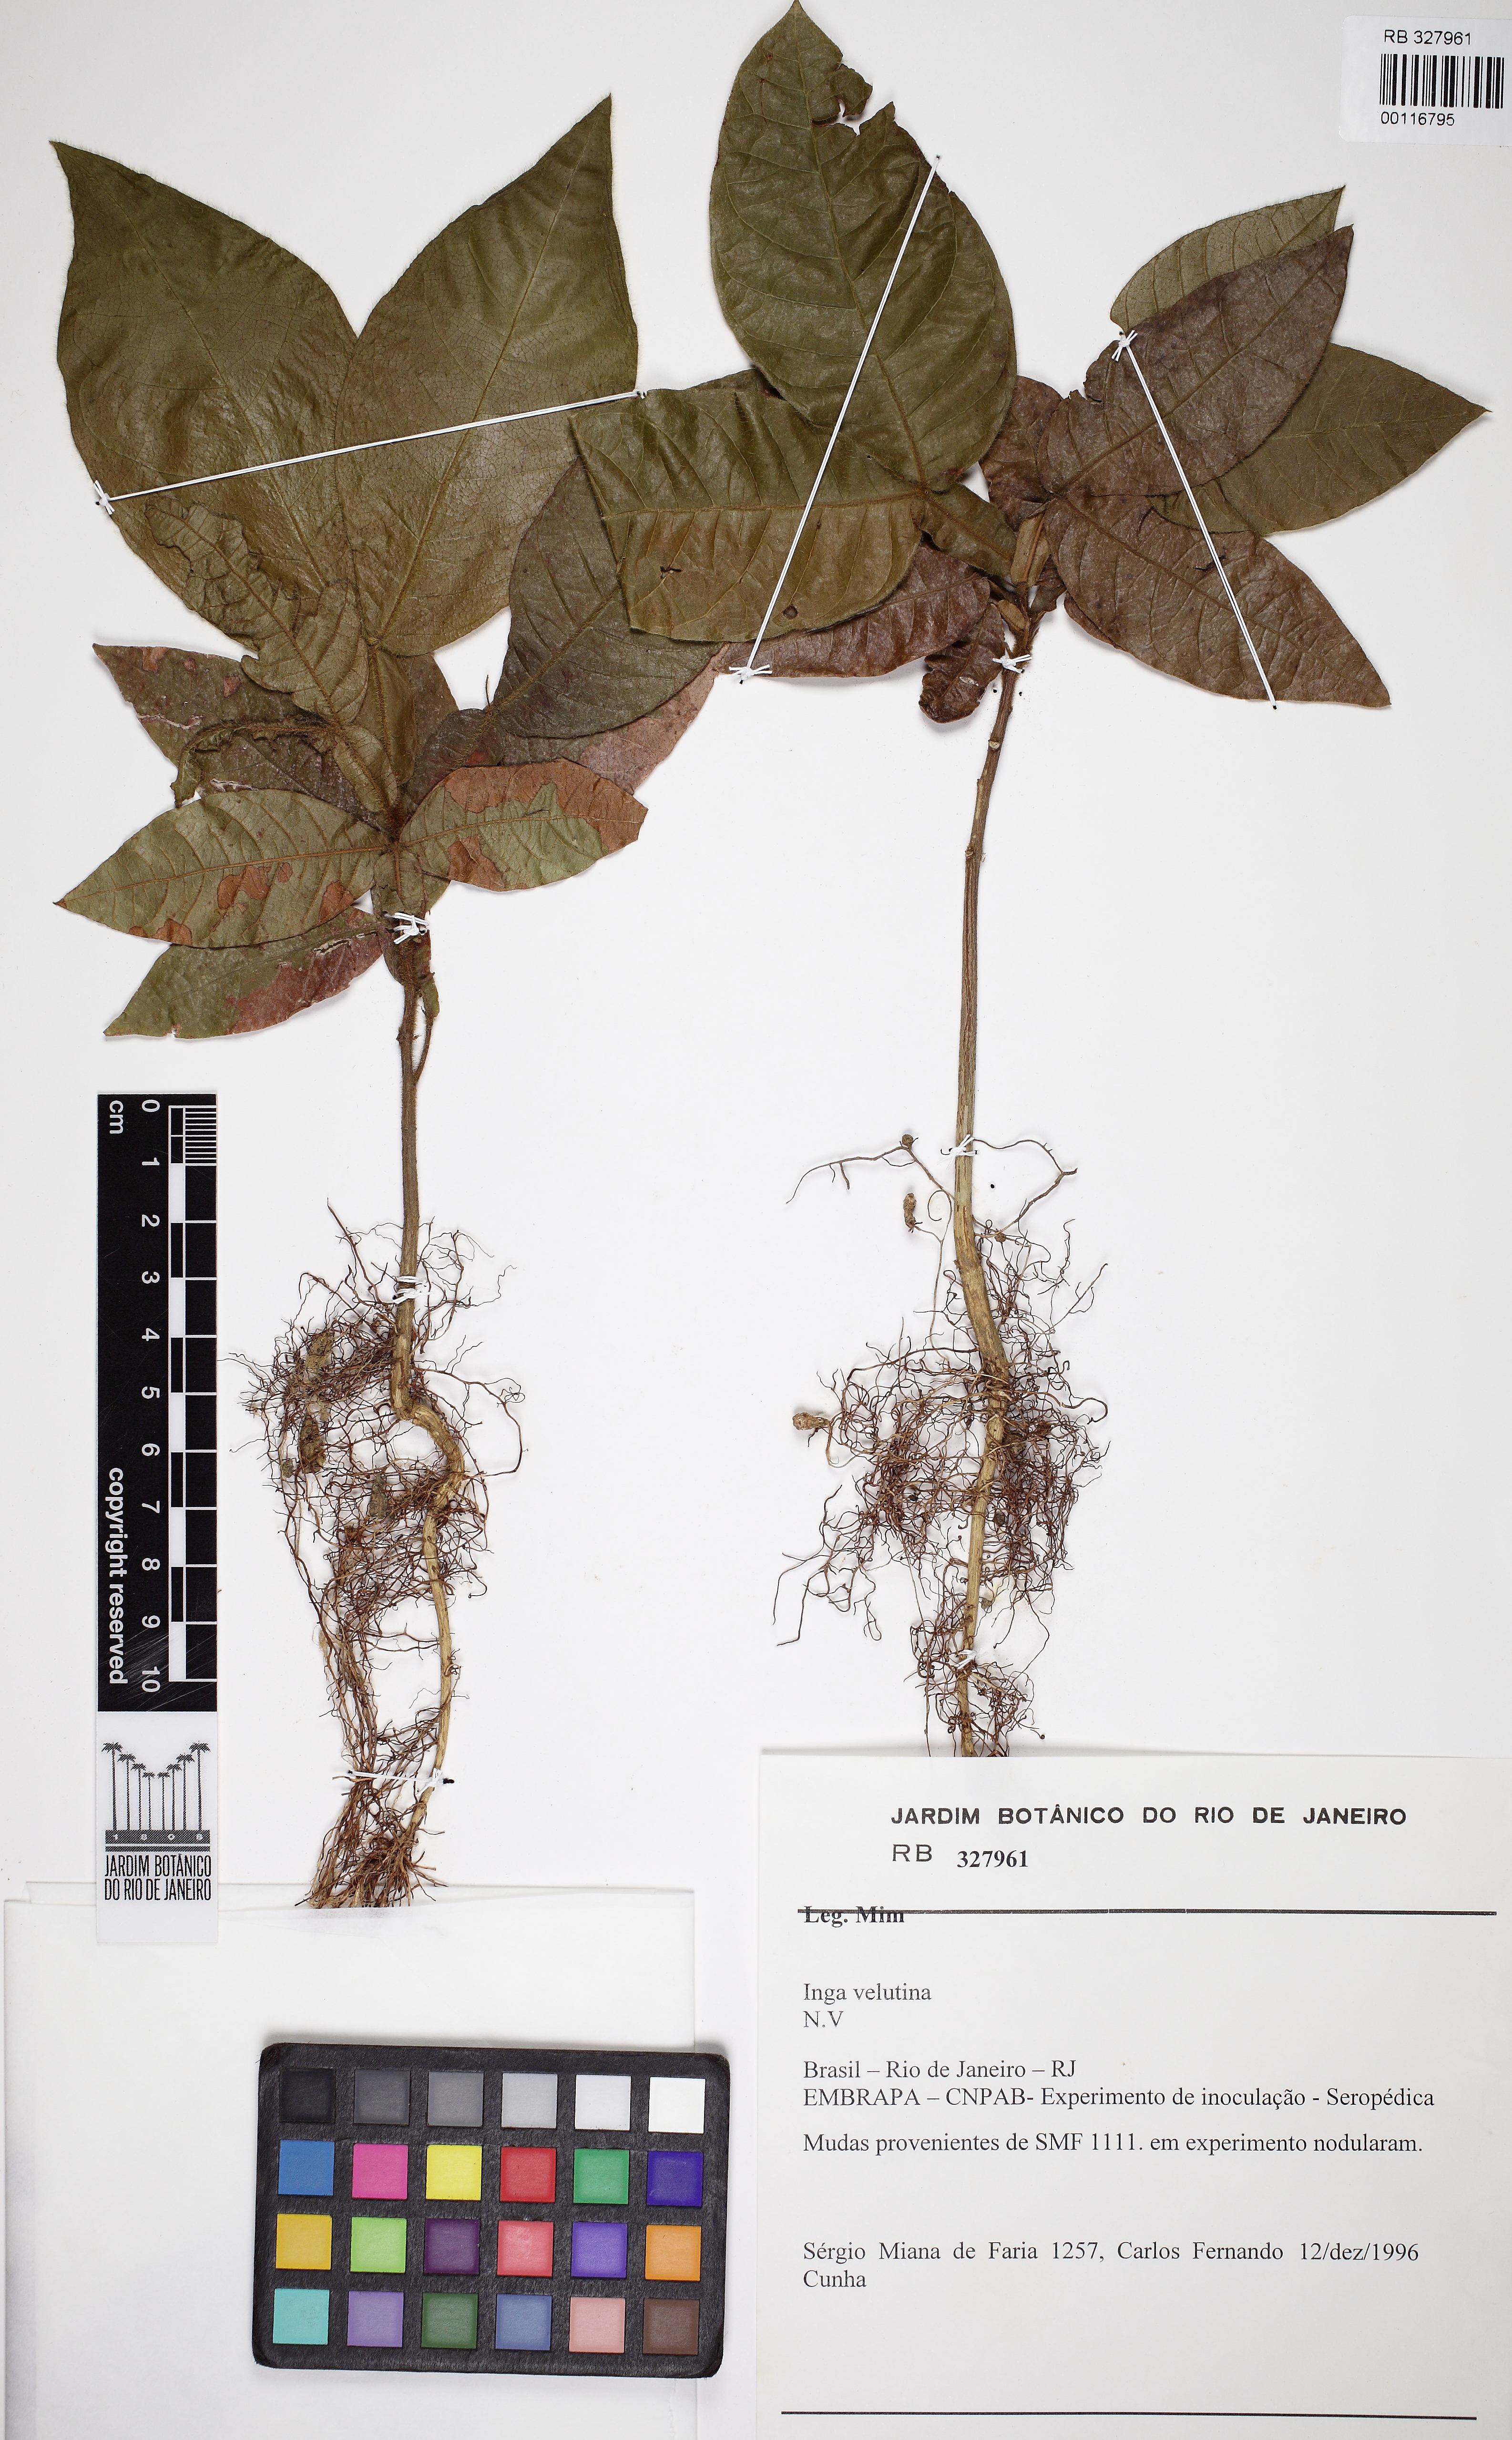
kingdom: Plantae
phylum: Tracheophyta
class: Magnoliopsida
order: Fabales
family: Fabaceae
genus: Inga
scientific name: Inga velutina
